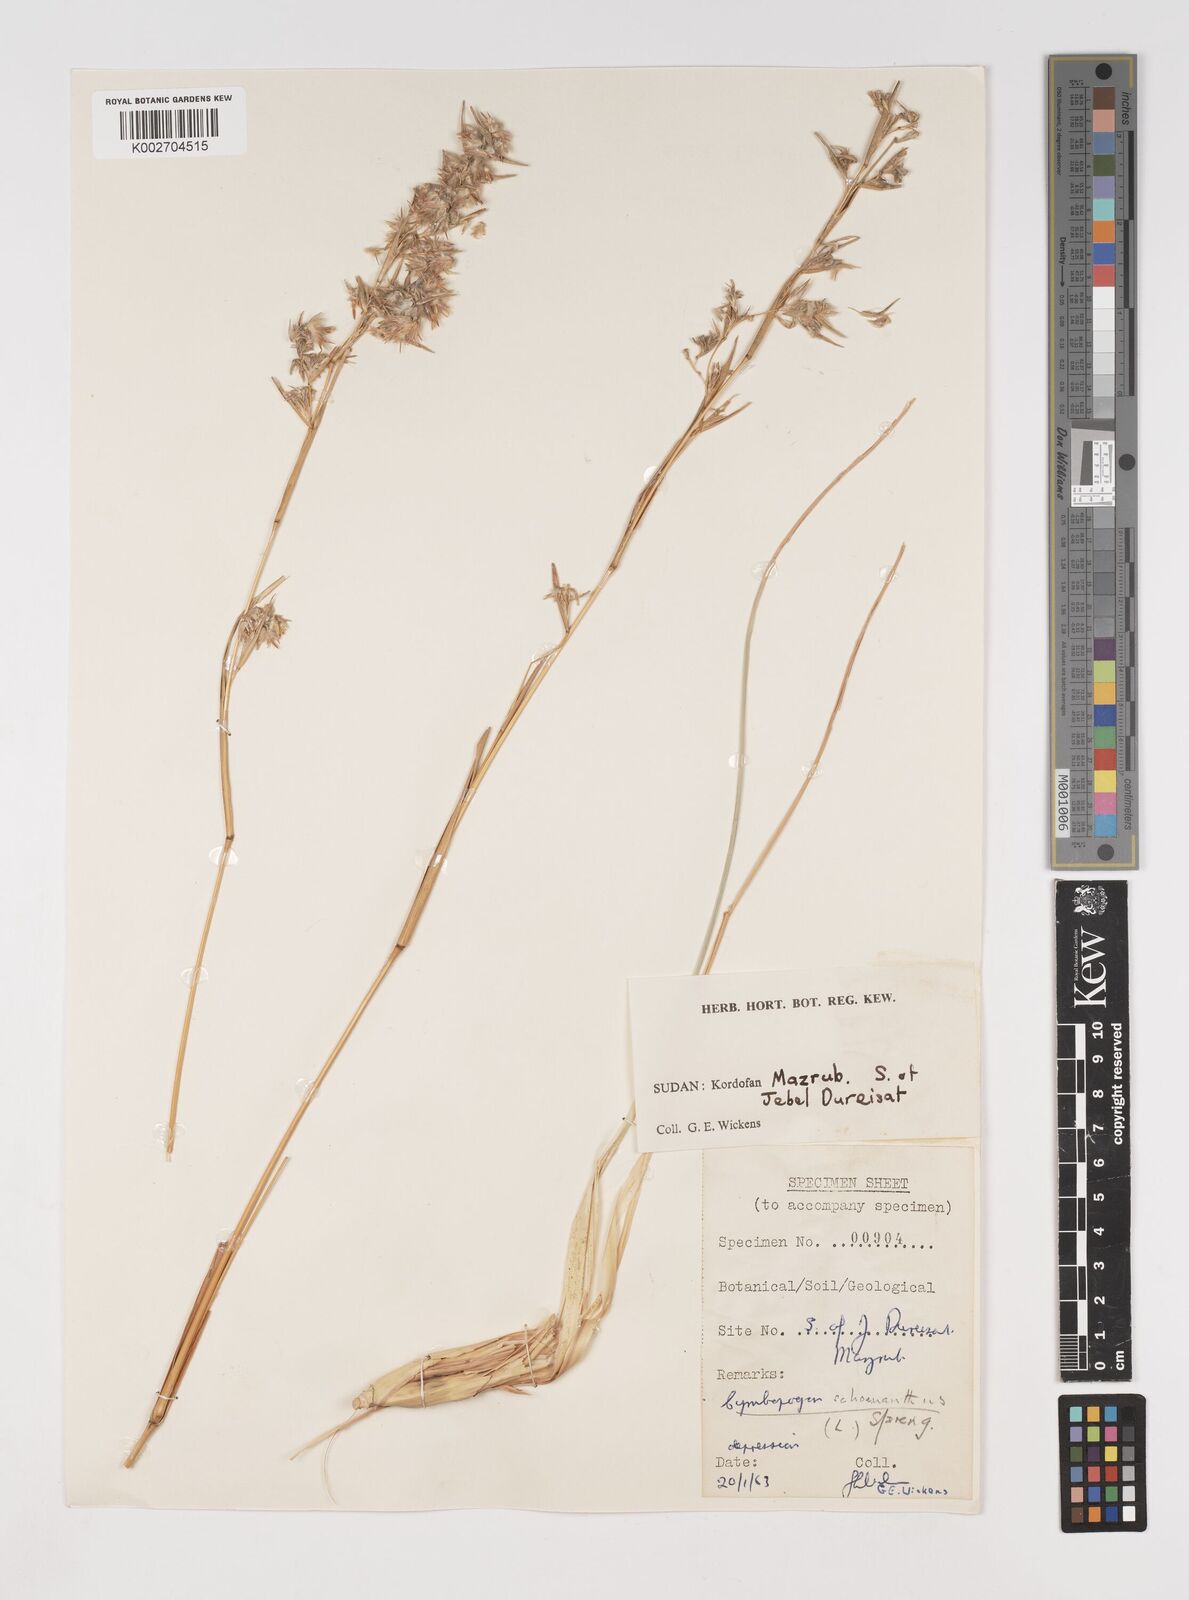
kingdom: Plantae
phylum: Tracheophyta
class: Liliopsida
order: Poales
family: Poaceae
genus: Cymbopogon
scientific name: Cymbopogon schoenanthus
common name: Geranium grass
